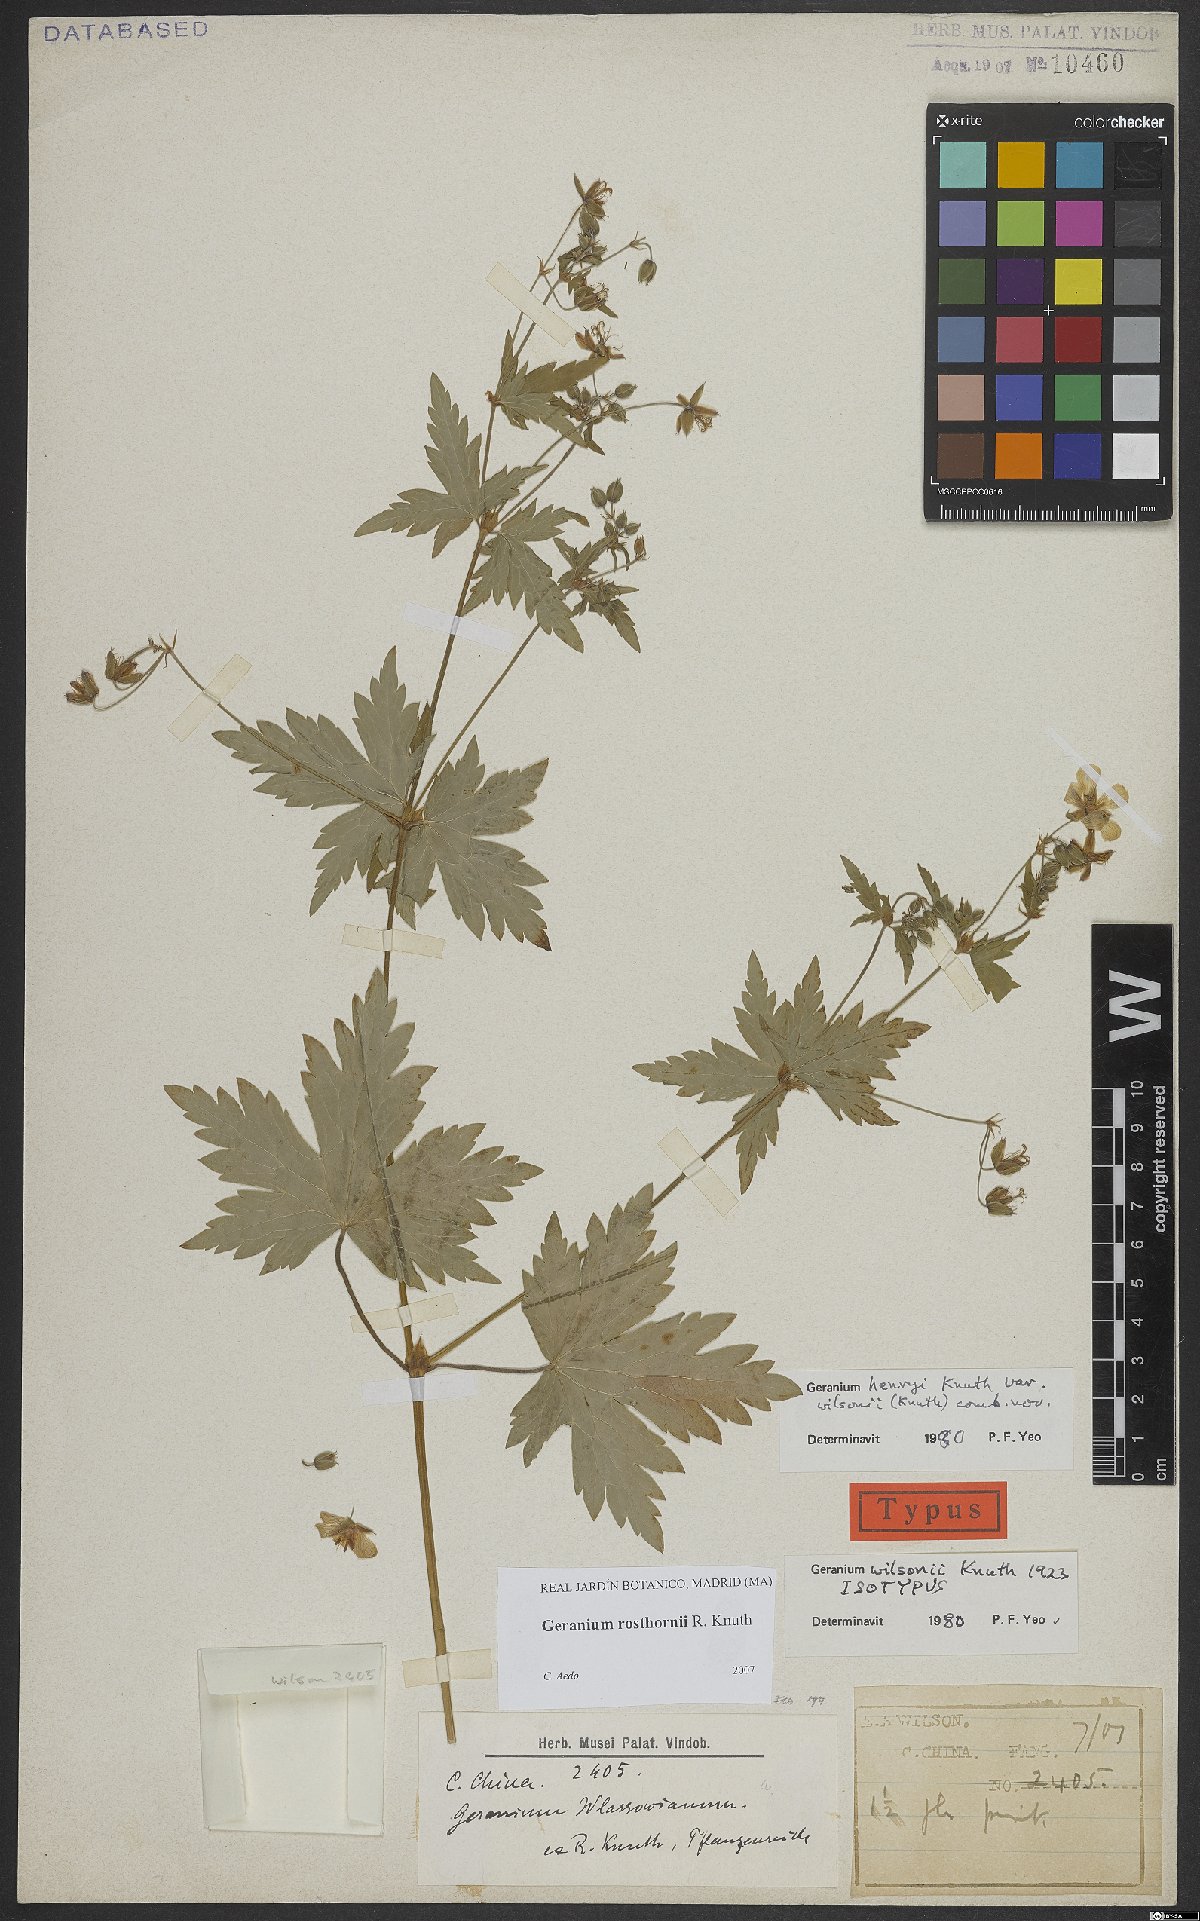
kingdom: Plantae
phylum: Tracheophyta
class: Magnoliopsida
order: Geraniales
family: Geraniaceae
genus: Geranium
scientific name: Geranium rosthornii
